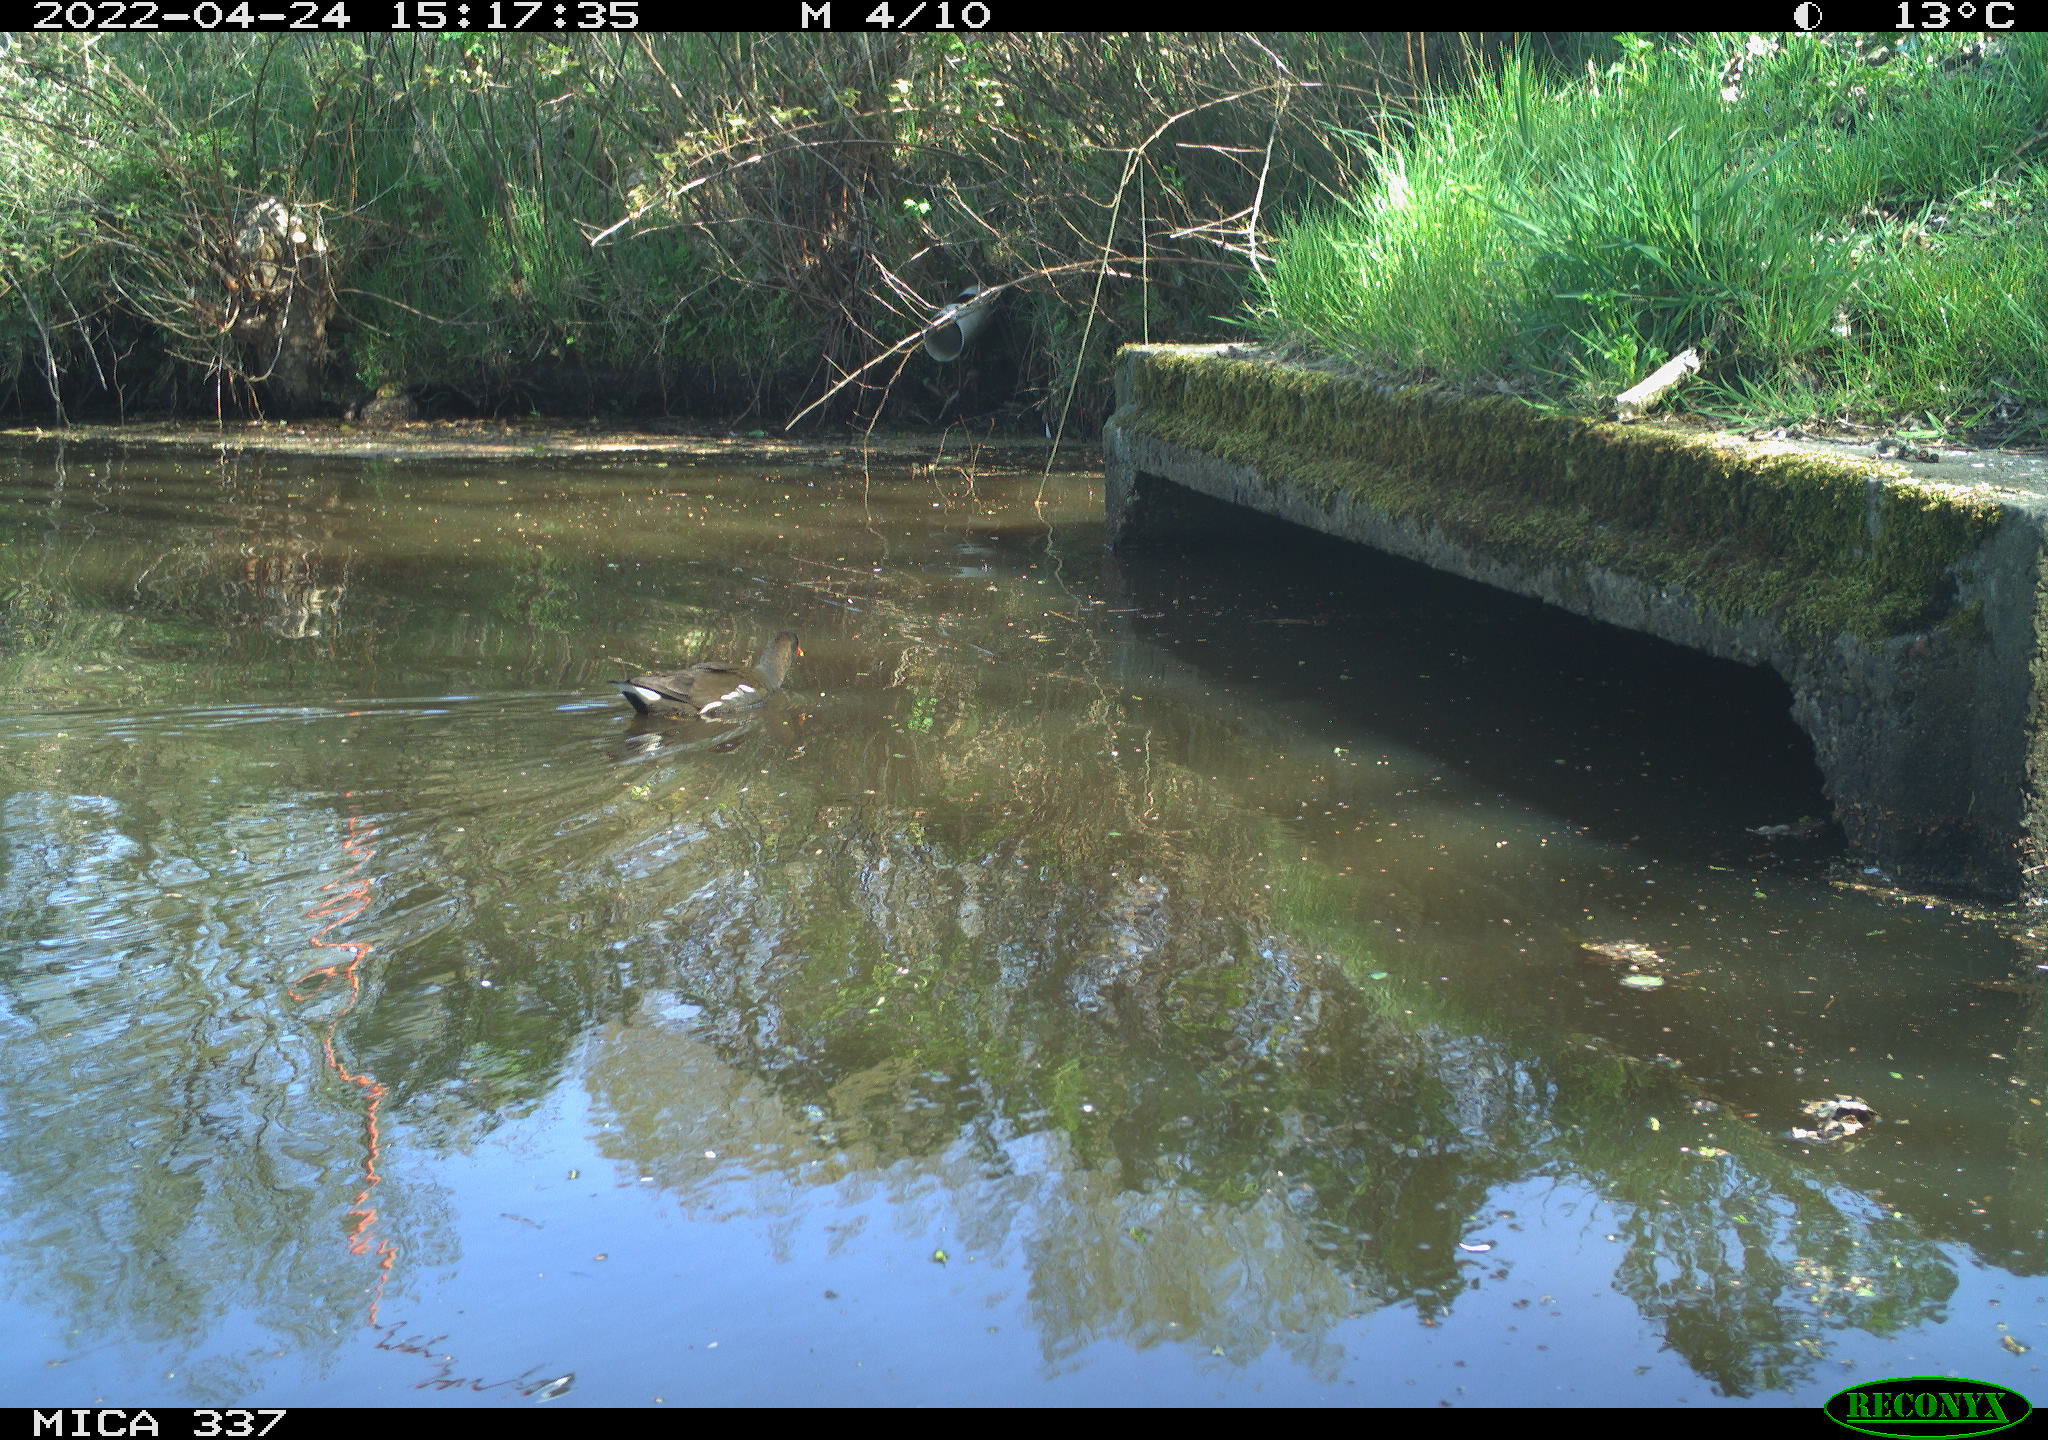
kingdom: Animalia
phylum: Chordata
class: Aves
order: Gruiformes
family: Rallidae
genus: Gallinula
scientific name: Gallinula chloropus
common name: Common moorhen
